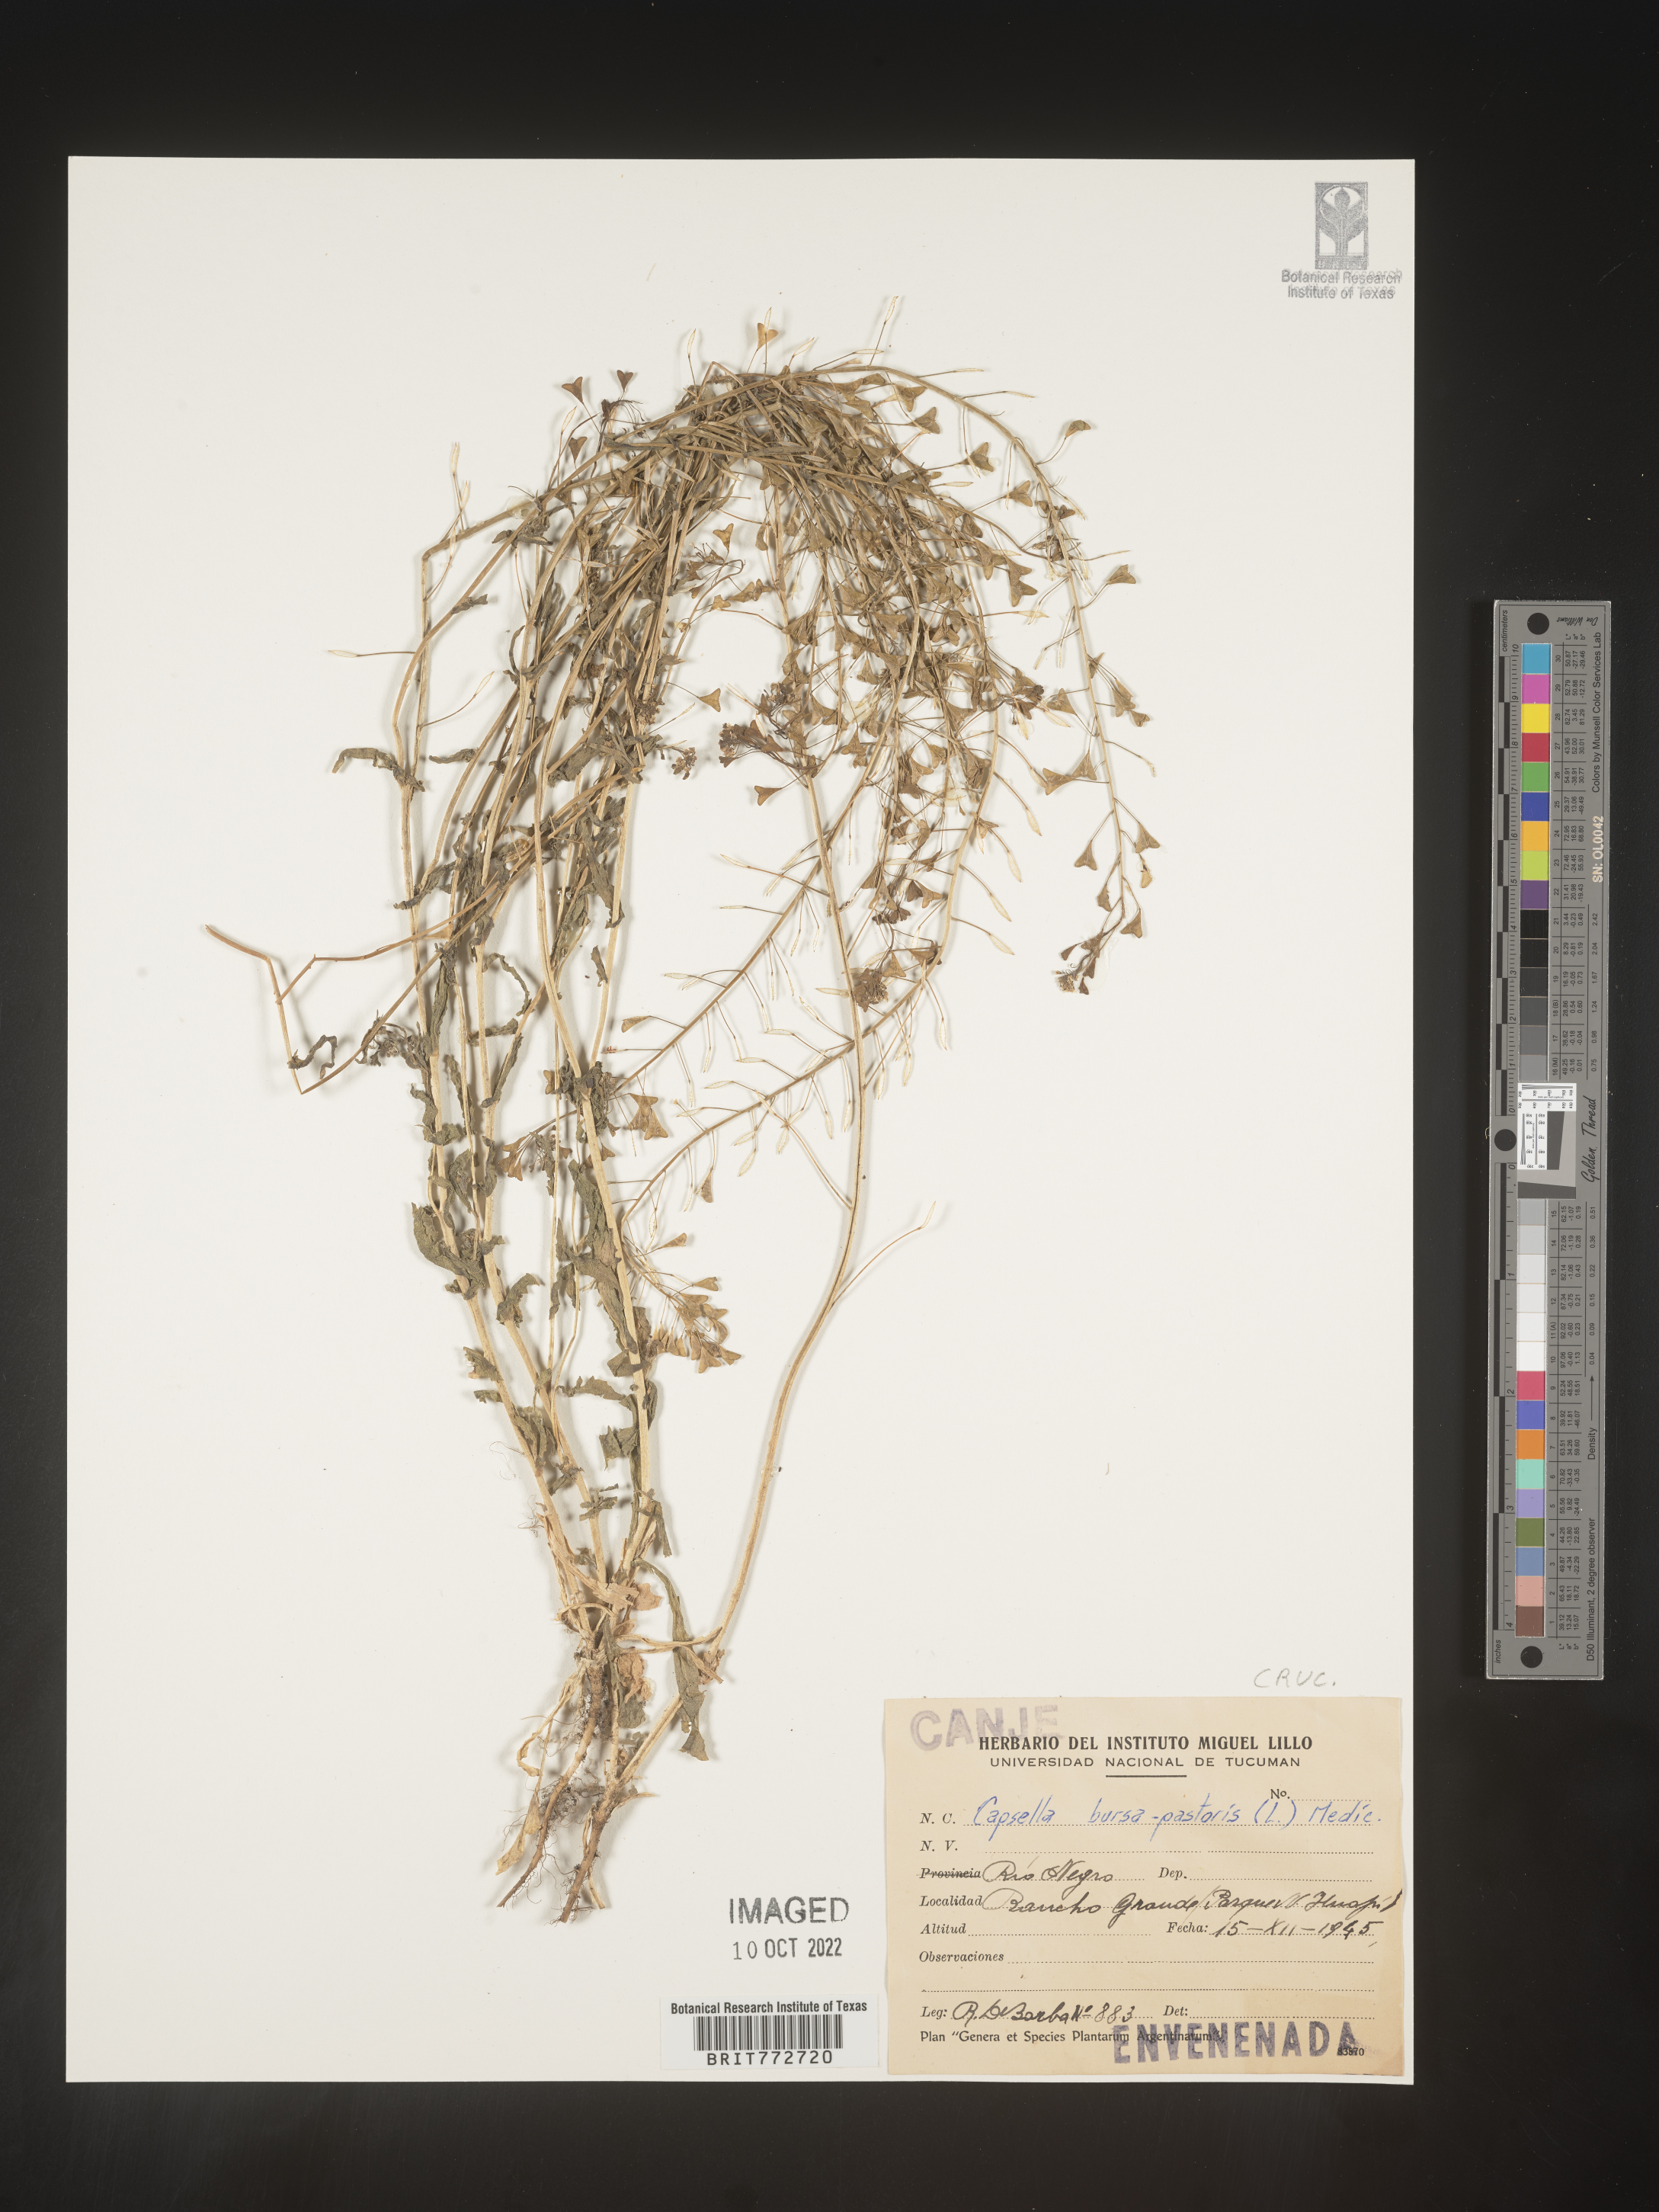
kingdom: Plantae
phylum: Tracheophyta
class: Magnoliopsida
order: Brassicales
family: Brassicaceae
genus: Capsella
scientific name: Capsella
